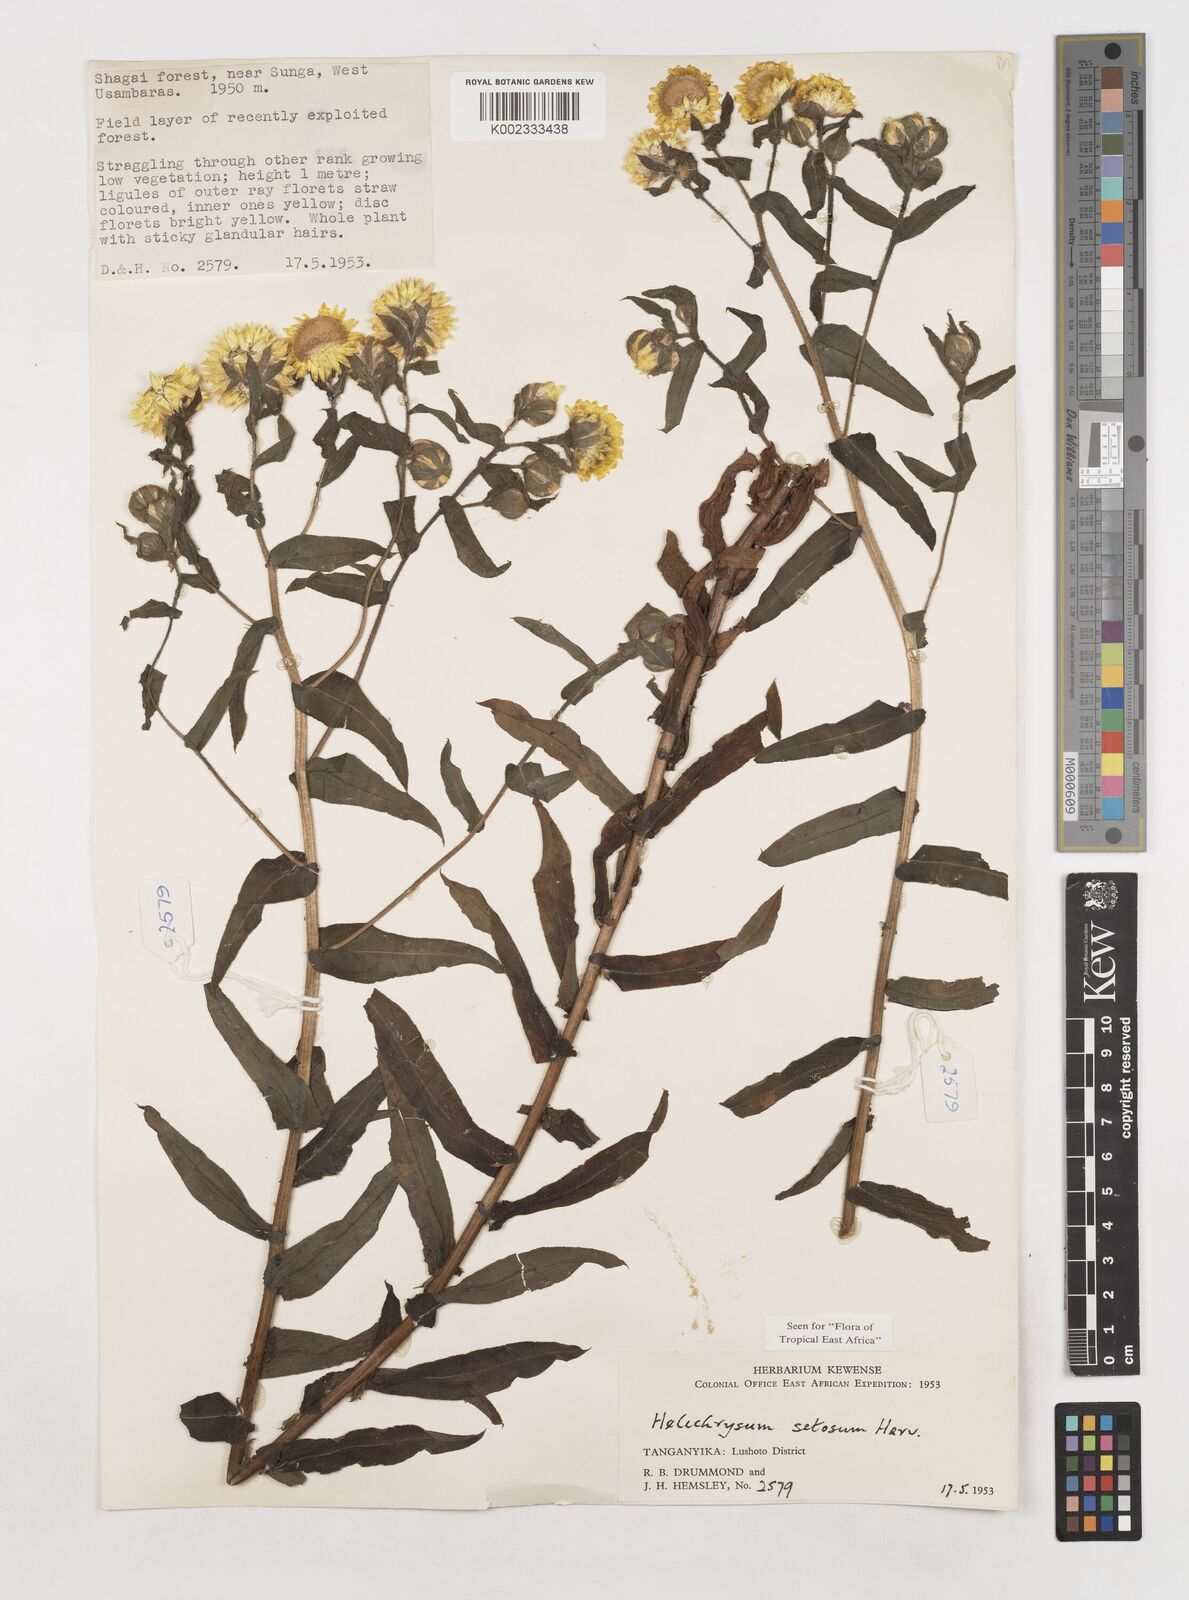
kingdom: Plantae
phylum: Tracheophyta
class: Magnoliopsida
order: Asterales
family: Asteraceae
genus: Helichrysum
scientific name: Helichrysum setosum
